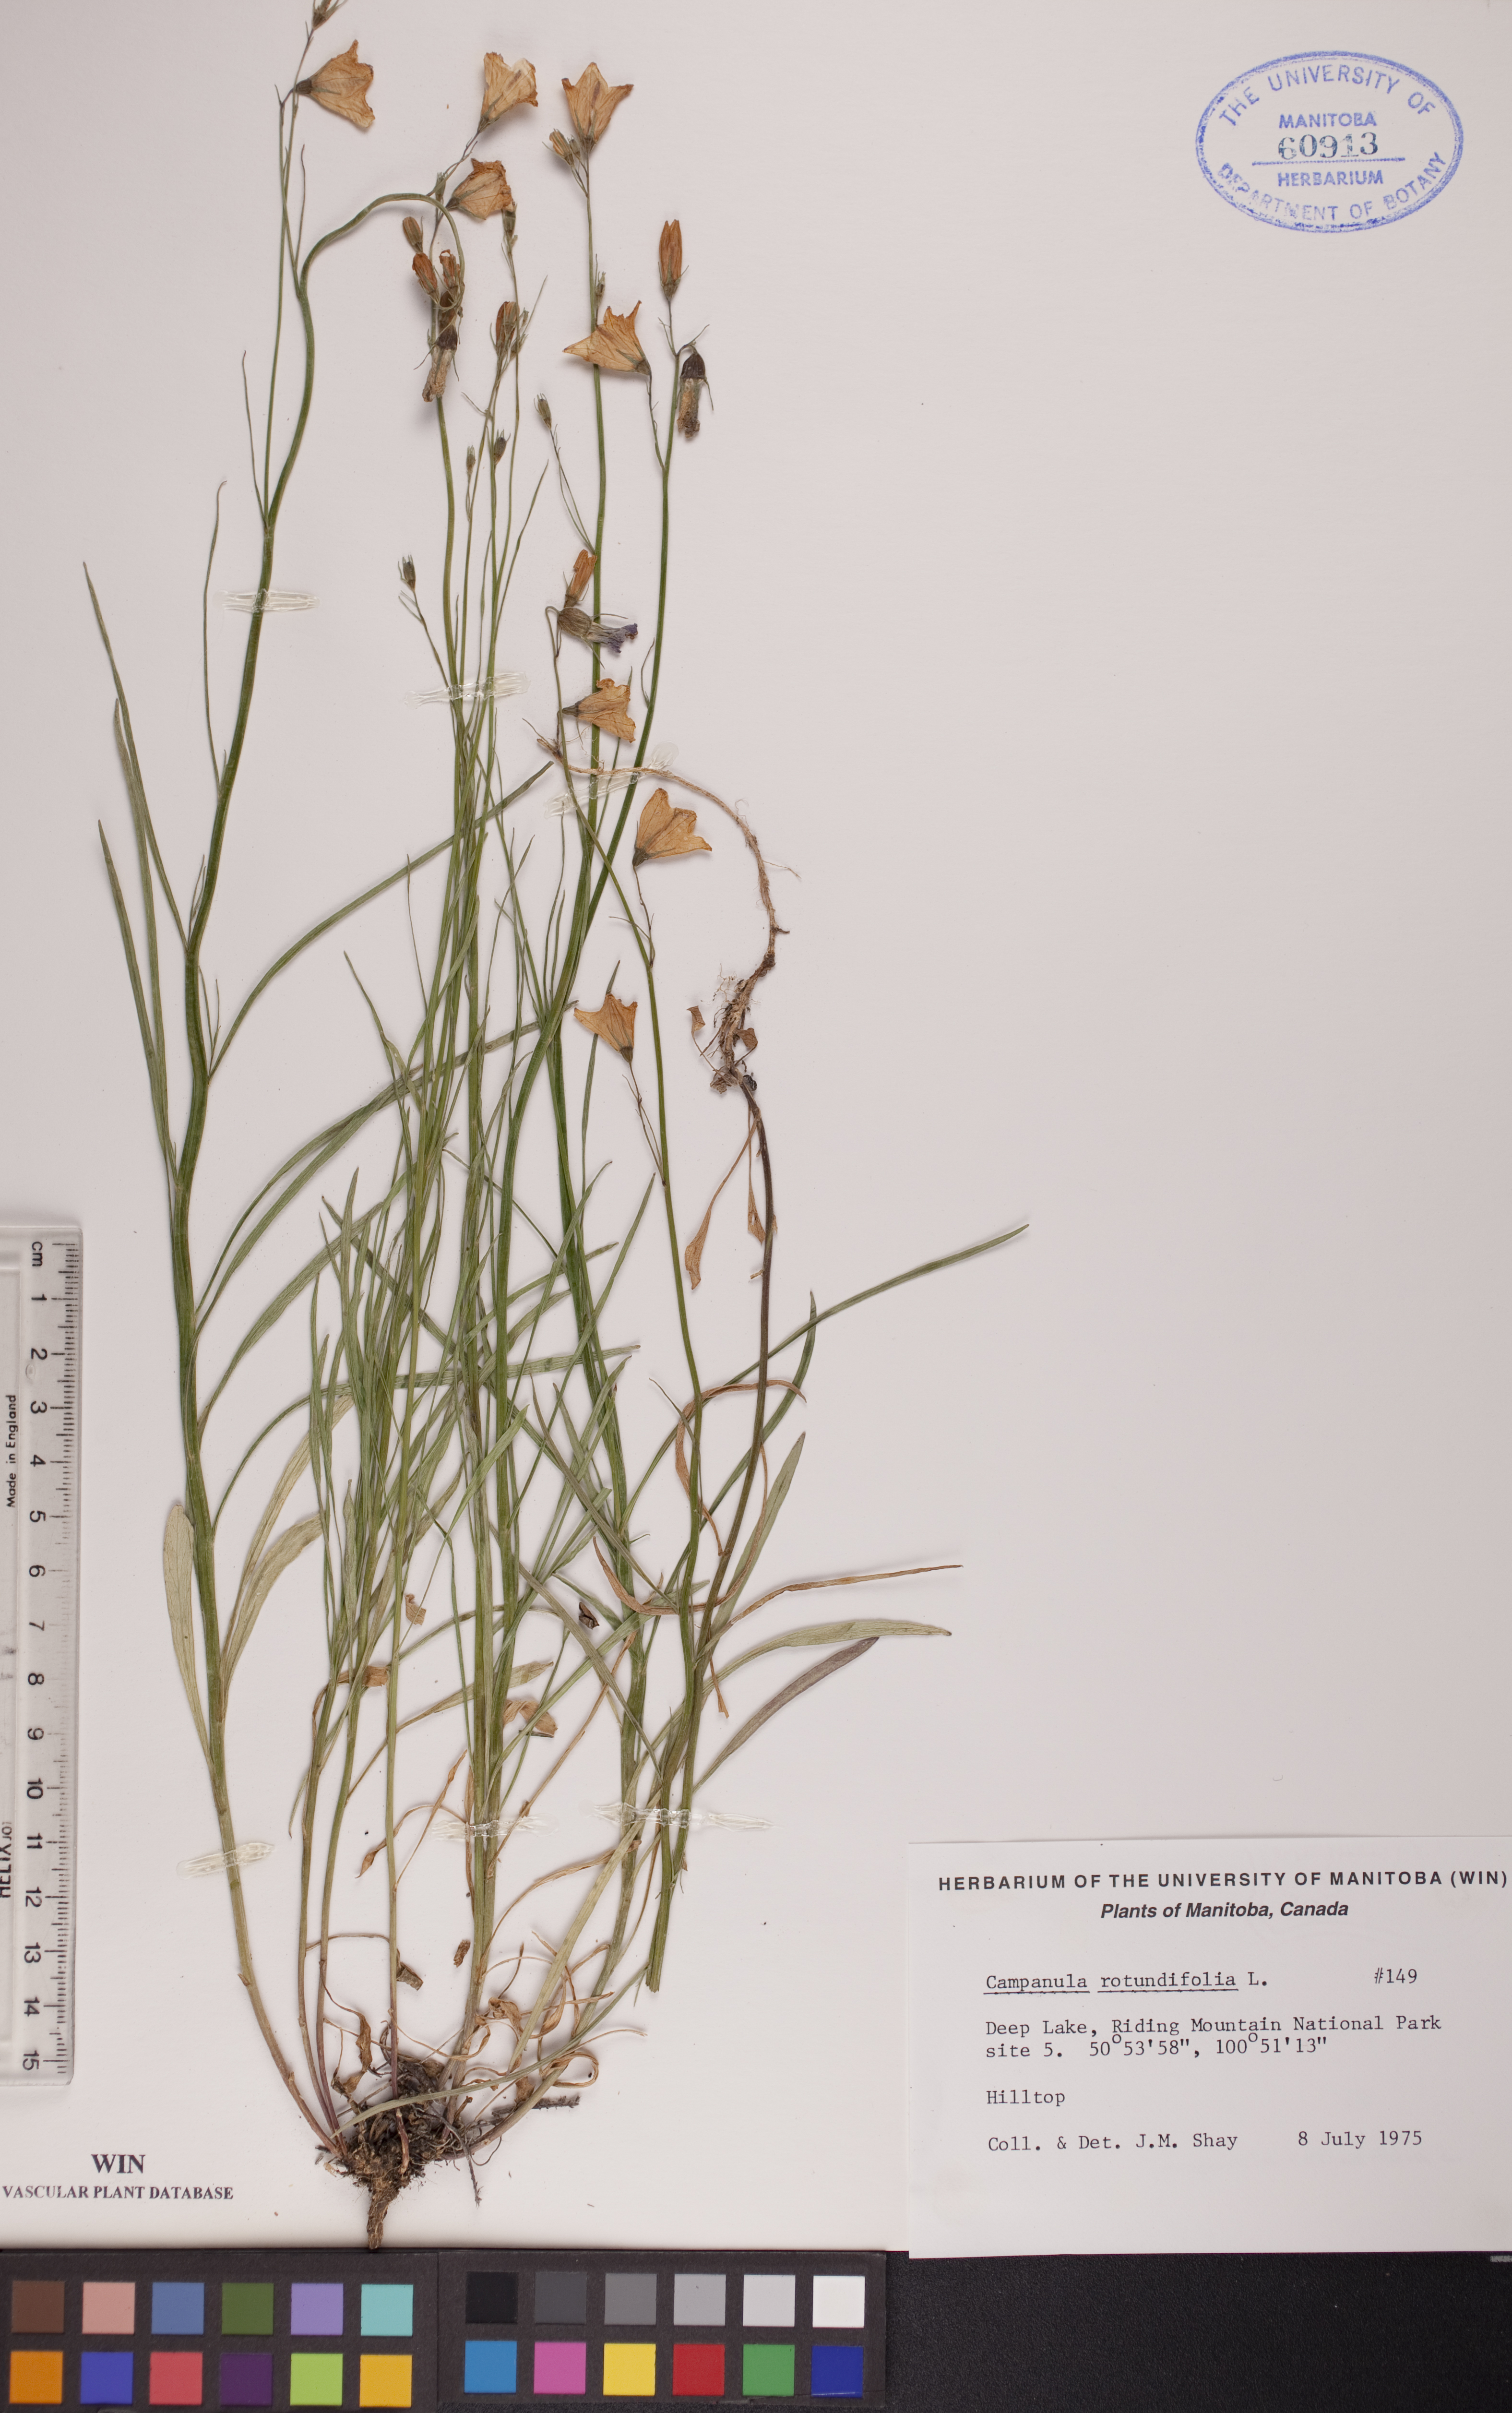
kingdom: Plantae
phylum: Tracheophyta
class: Magnoliopsida
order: Asterales
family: Campanulaceae
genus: Campanula
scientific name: Campanula rotundifolia
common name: Harebell
